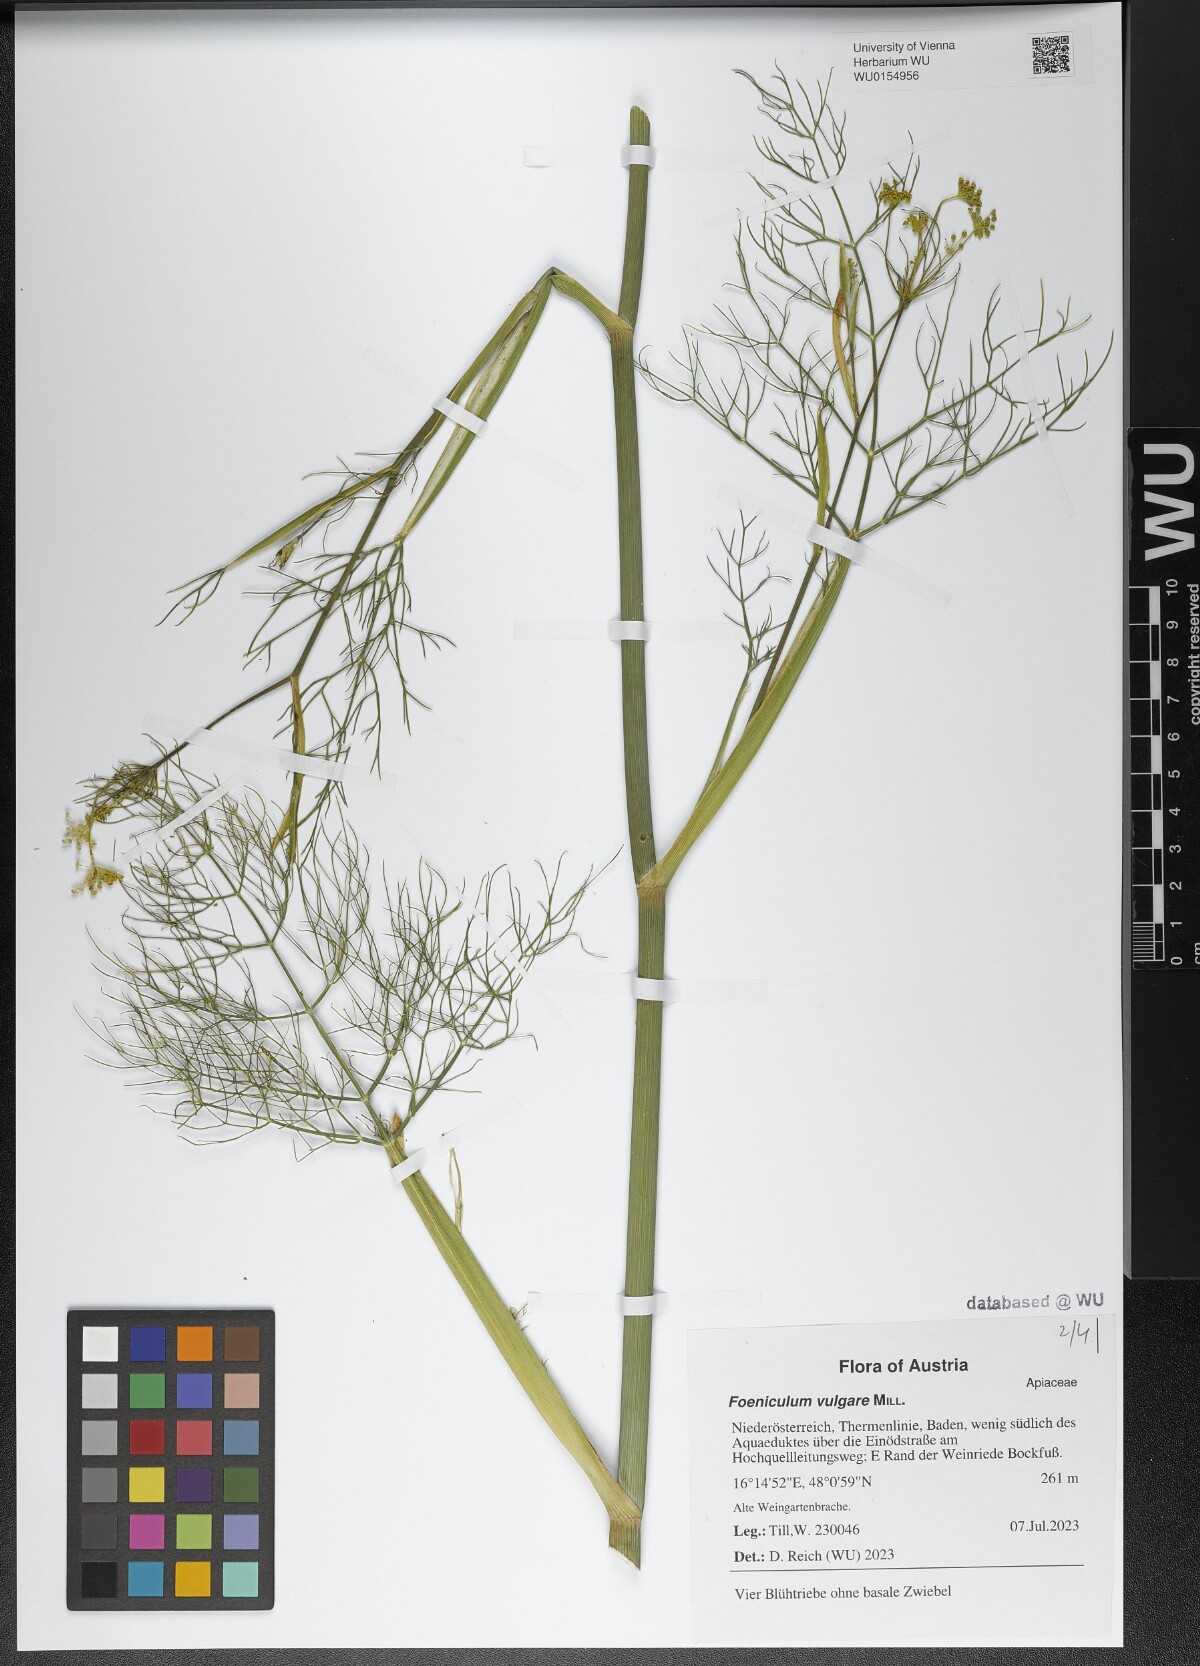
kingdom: Plantae
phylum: Tracheophyta
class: Magnoliopsida
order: Apiales
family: Apiaceae
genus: Foeniculum
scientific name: Foeniculum vulgare
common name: Fennel
